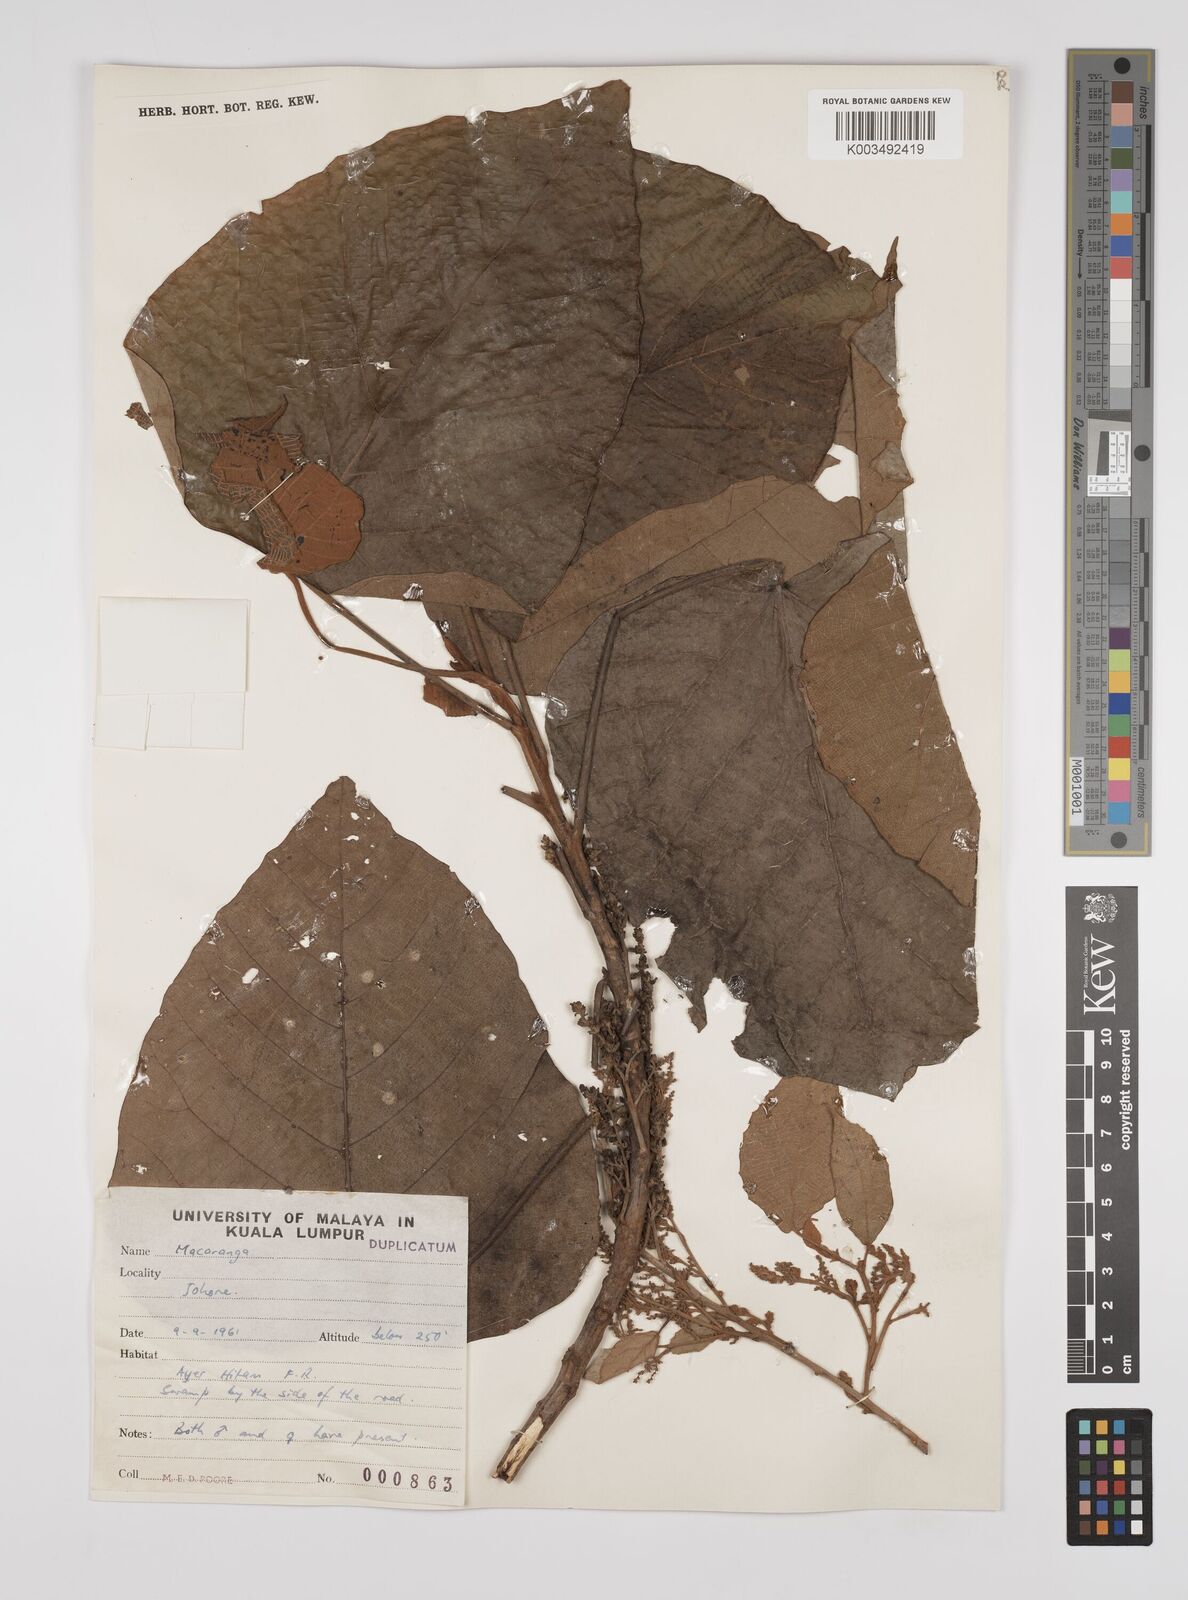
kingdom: Plantae
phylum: Tracheophyta
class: Magnoliopsida
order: Malpighiales
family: Euphorbiaceae
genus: Macaranga
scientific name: Macaranga denticulata
